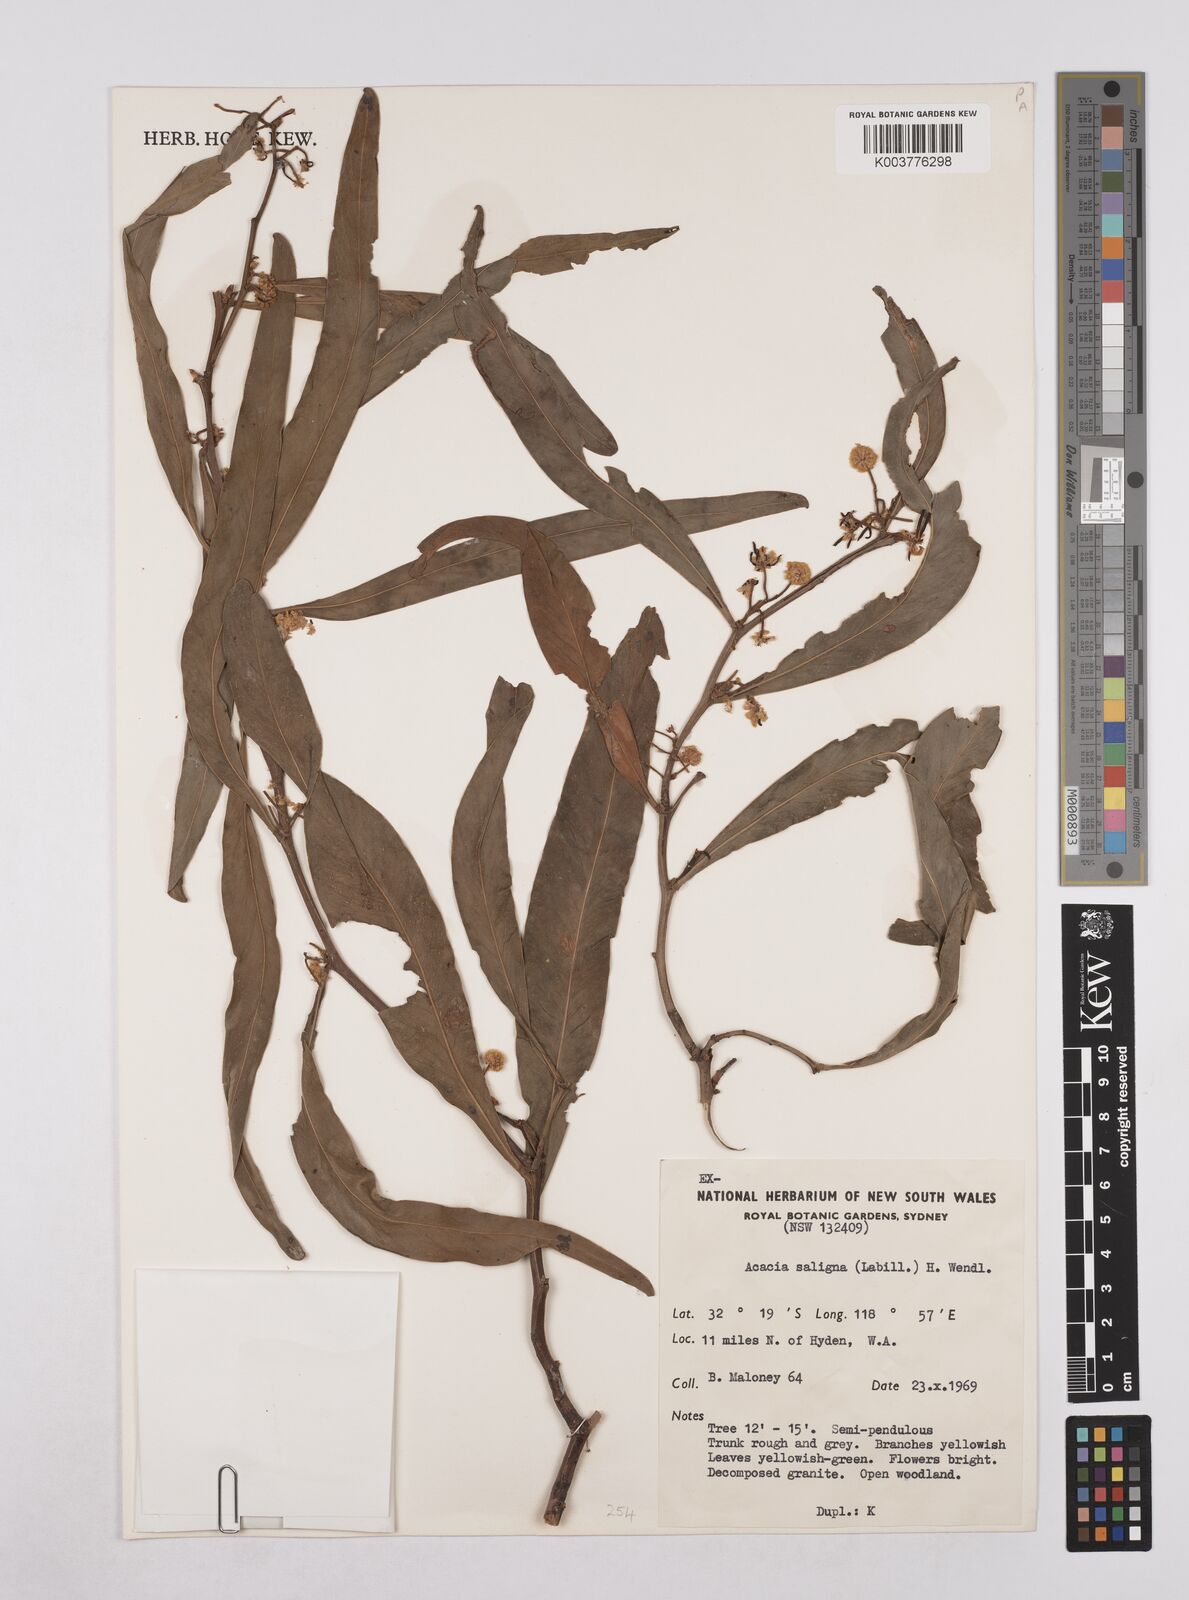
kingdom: Plantae
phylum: Tracheophyta
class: Magnoliopsida
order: Fabales
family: Fabaceae
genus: Acacia
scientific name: Acacia saligna
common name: Orange wattle
